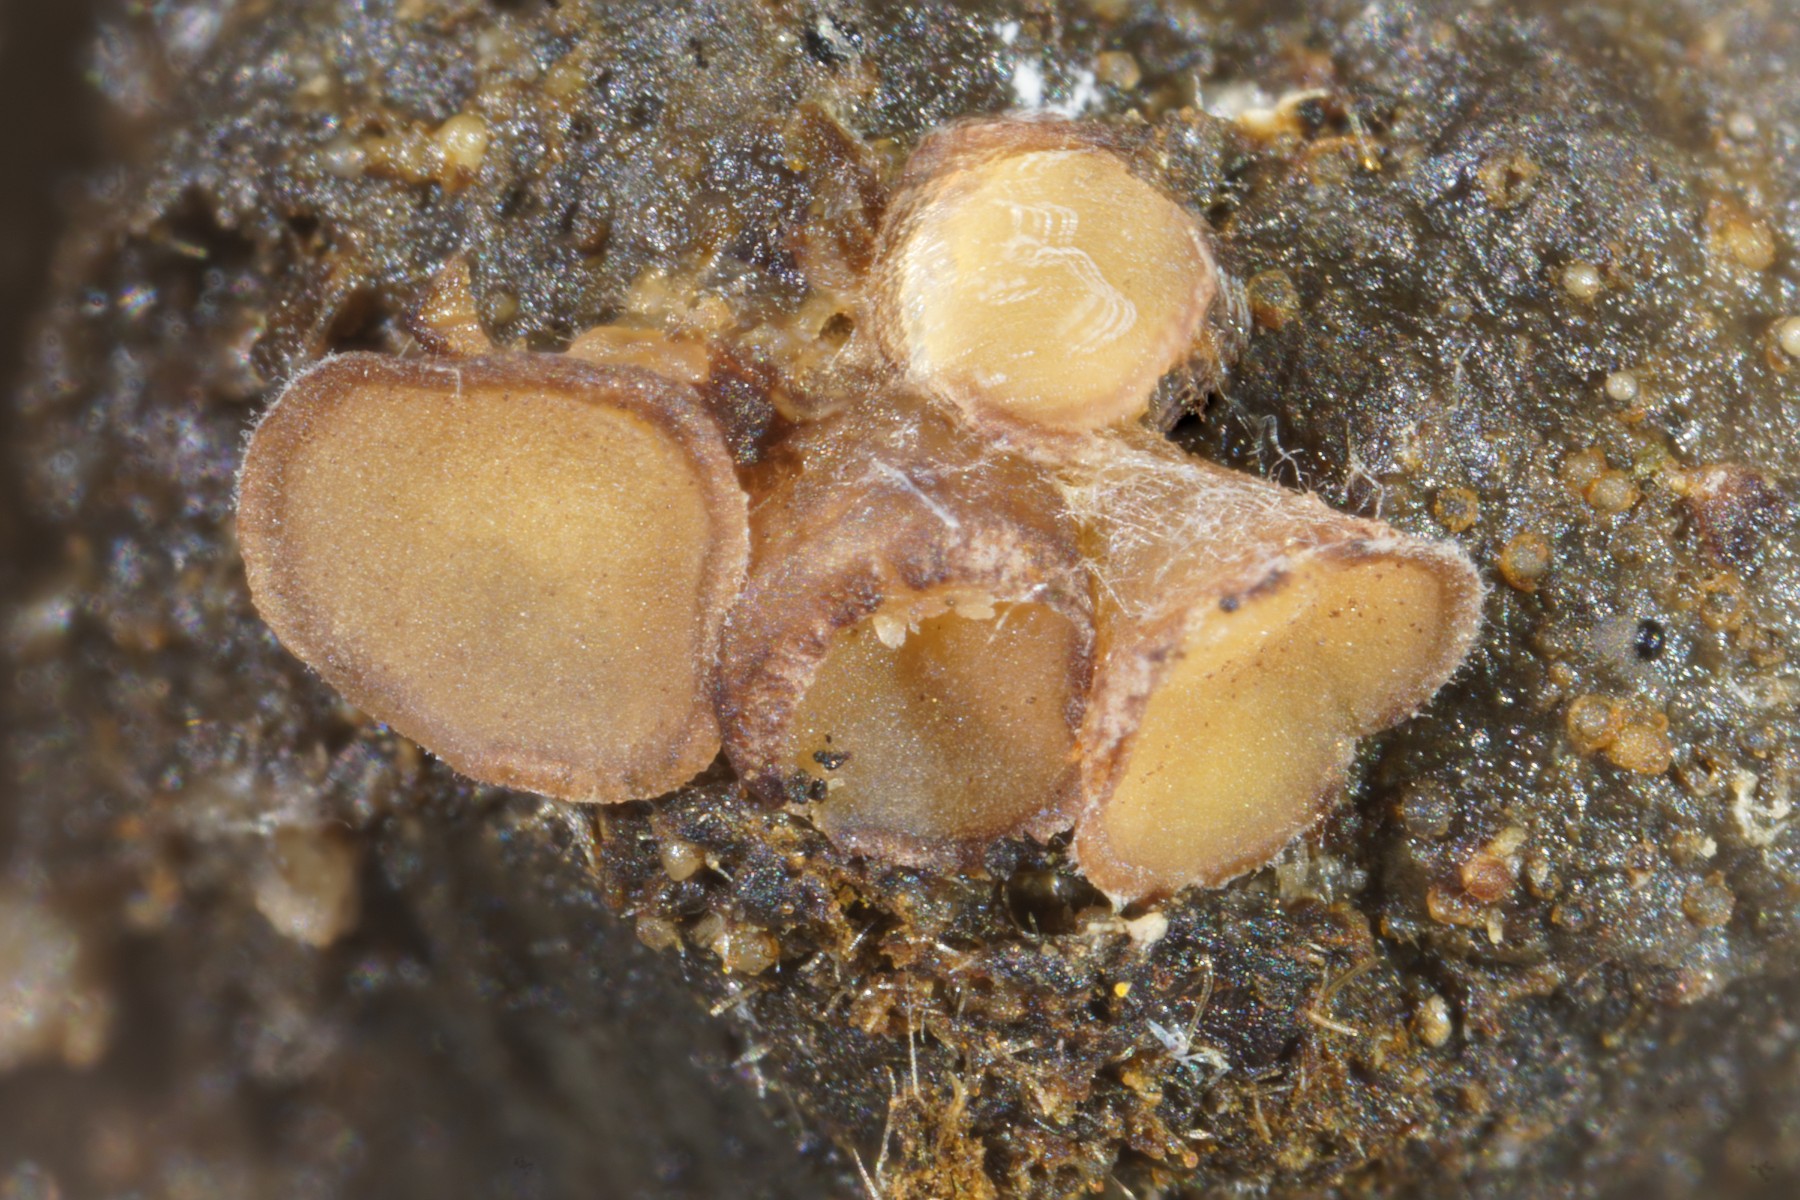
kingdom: Fungi
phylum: Ascomycota
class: Pezizomycetes
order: Pezizales
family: Pseudombrophilaceae
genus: Pseudombrophila
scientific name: Pseudombrophila theioleuca
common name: almindelig randbæger
